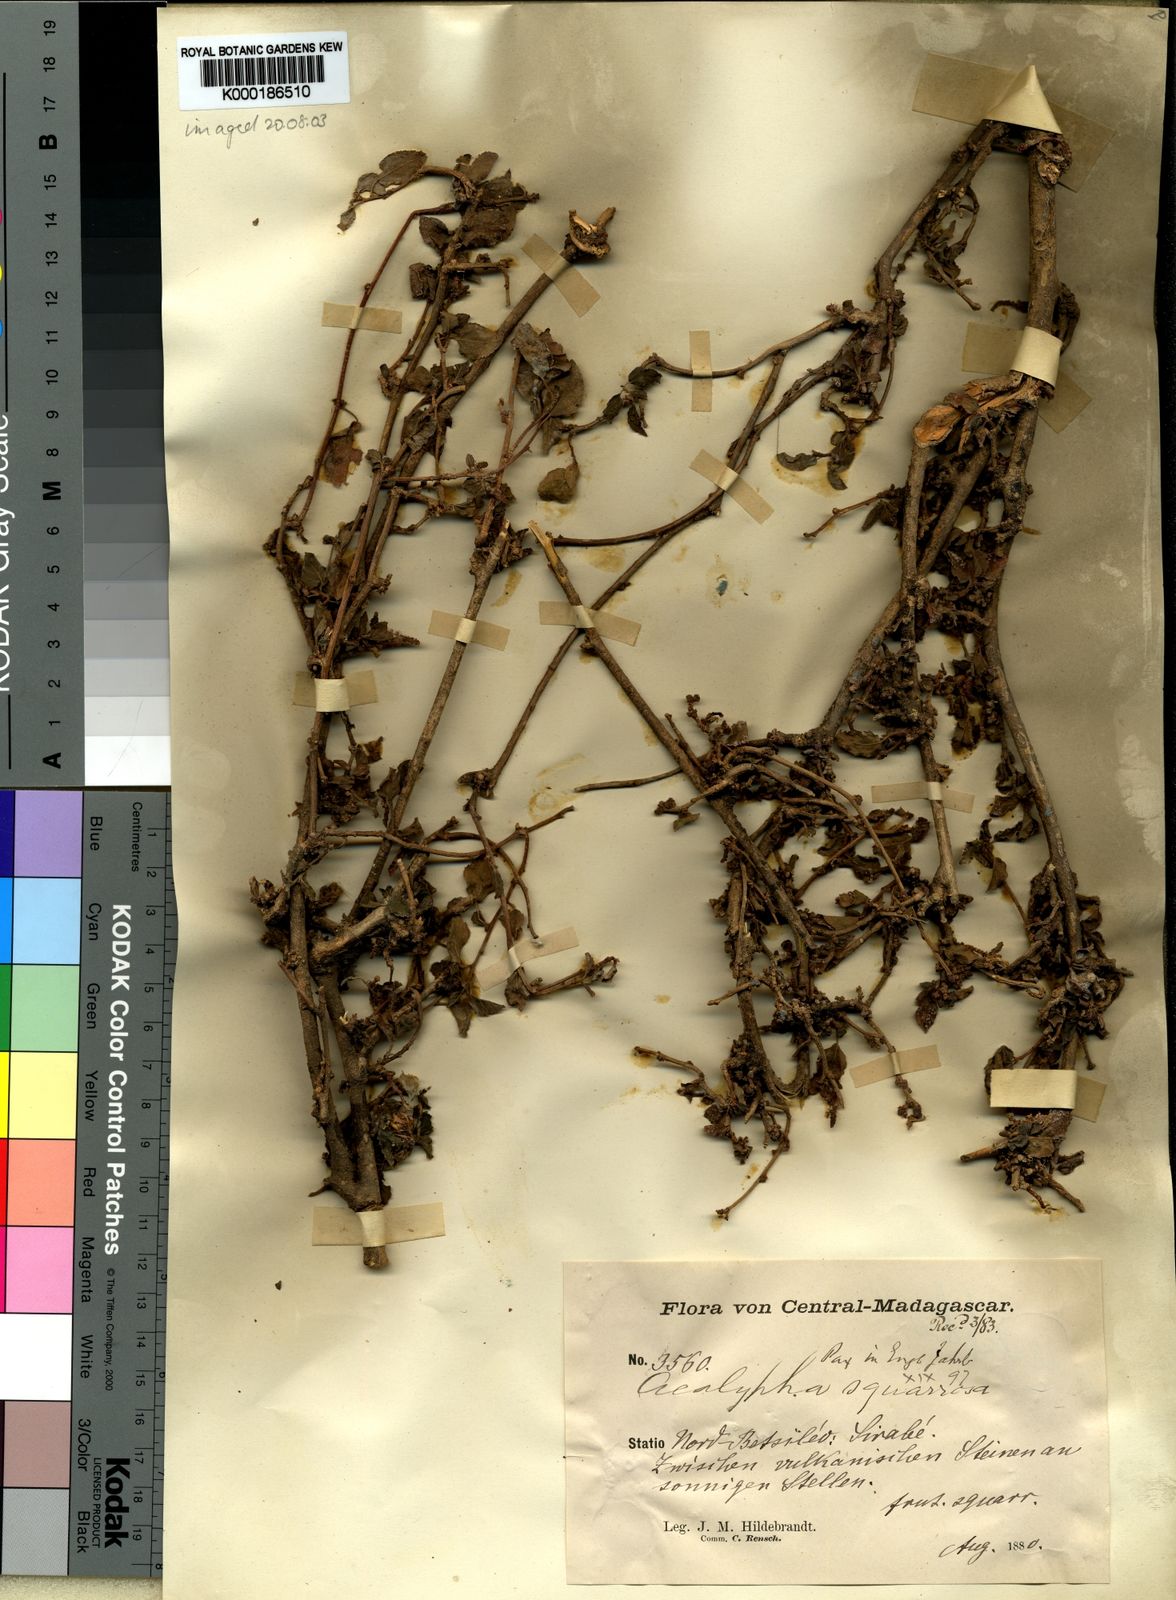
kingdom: Plantae
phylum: Tracheophyta
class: Magnoliopsida
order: Malpighiales
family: Euphorbiaceae
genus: Acalypha
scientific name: Acalypha spachiana
